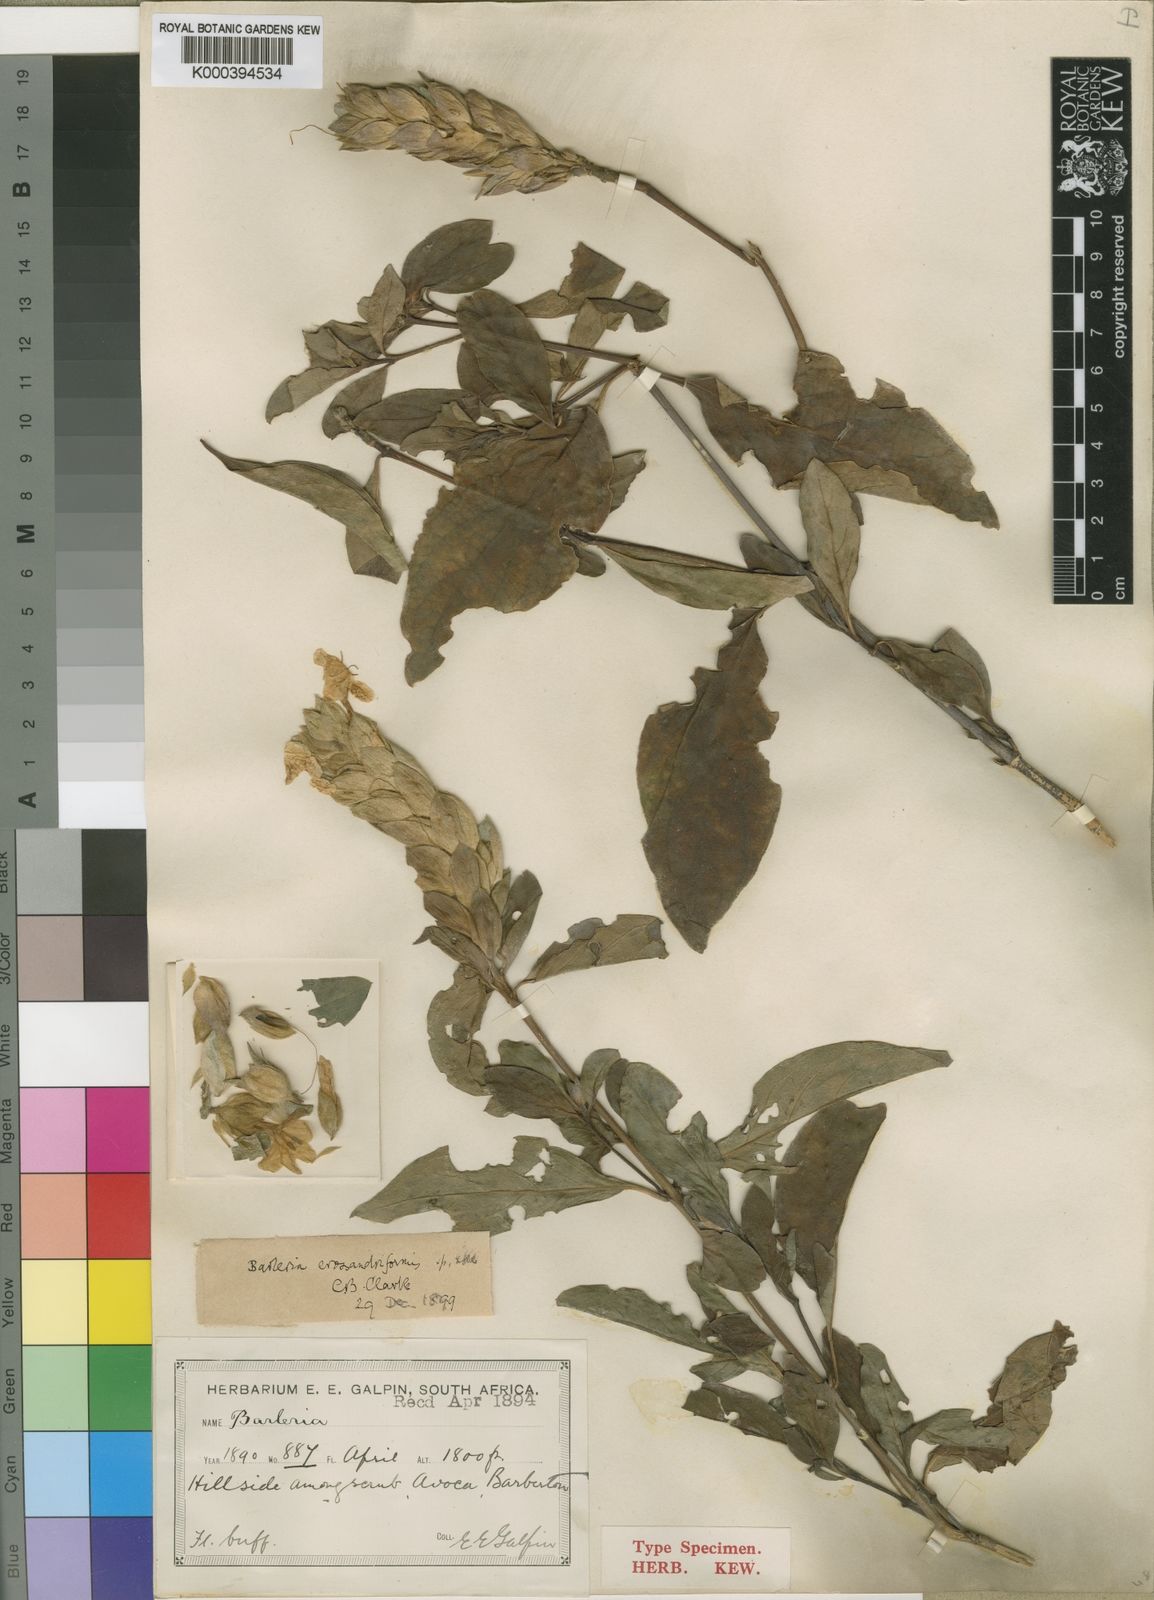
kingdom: Plantae
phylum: Tracheophyta
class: Magnoliopsida
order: Lamiales
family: Acanthaceae
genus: Barleria
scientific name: Barleria crossandriformis
